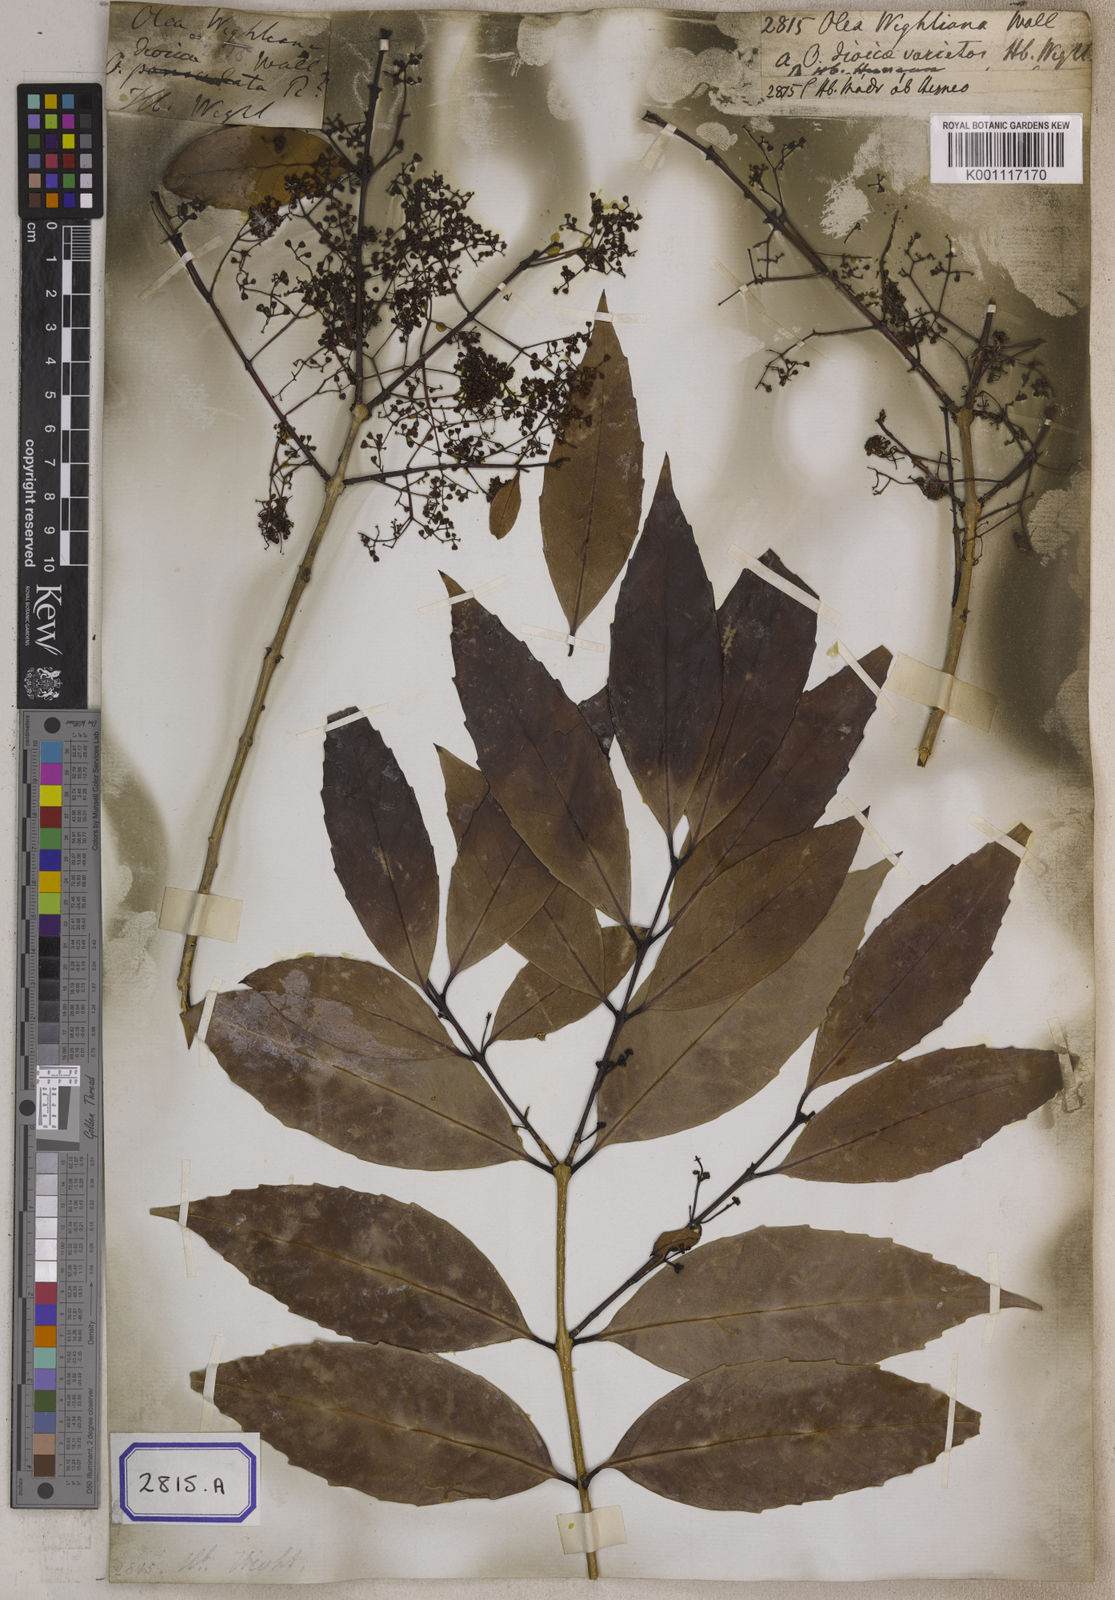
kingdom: Plantae
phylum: Tracheophyta
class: Magnoliopsida
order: Lamiales
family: Oleaceae
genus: Olea
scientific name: Olea
